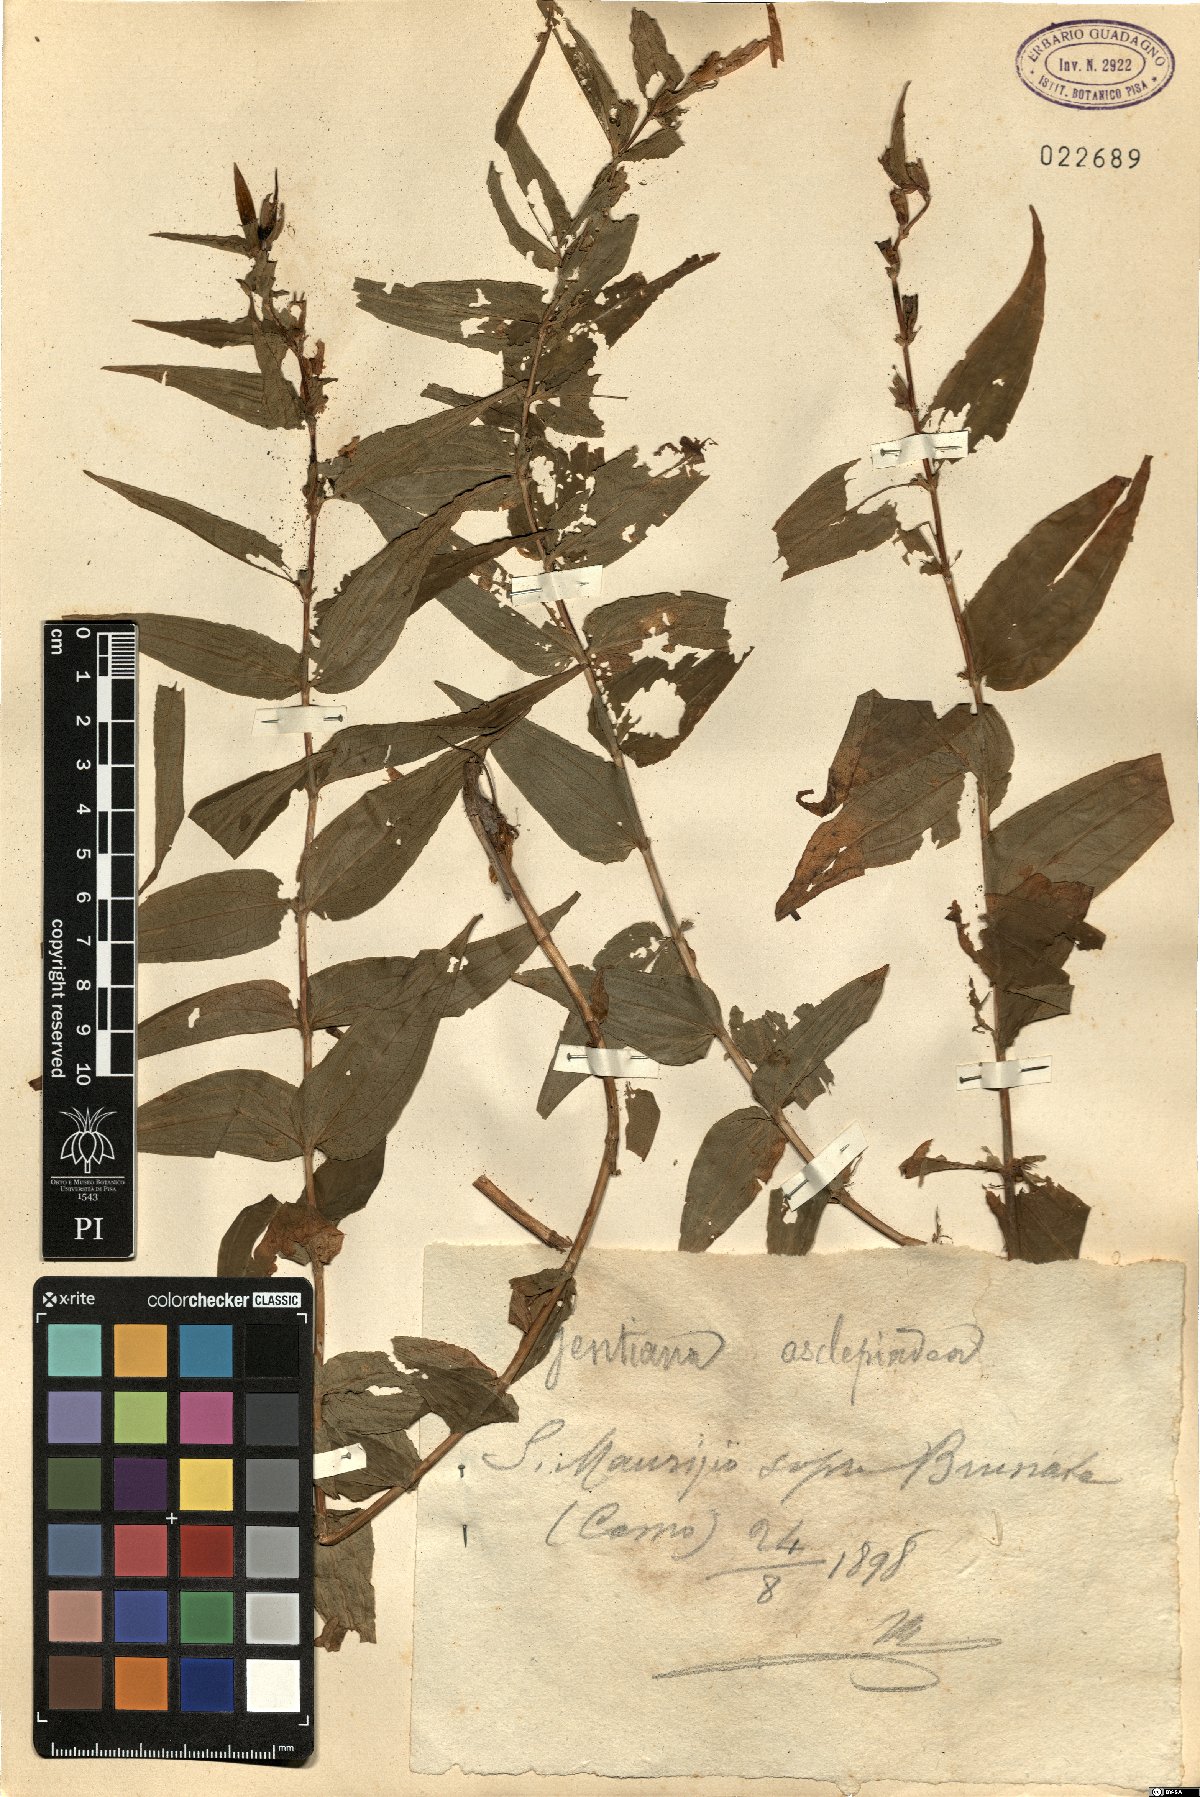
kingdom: Plantae
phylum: Tracheophyta
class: Magnoliopsida
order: Gentianales
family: Gentianaceae
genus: Gentiana
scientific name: Gentiana asclepiadea
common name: Willow gentian
